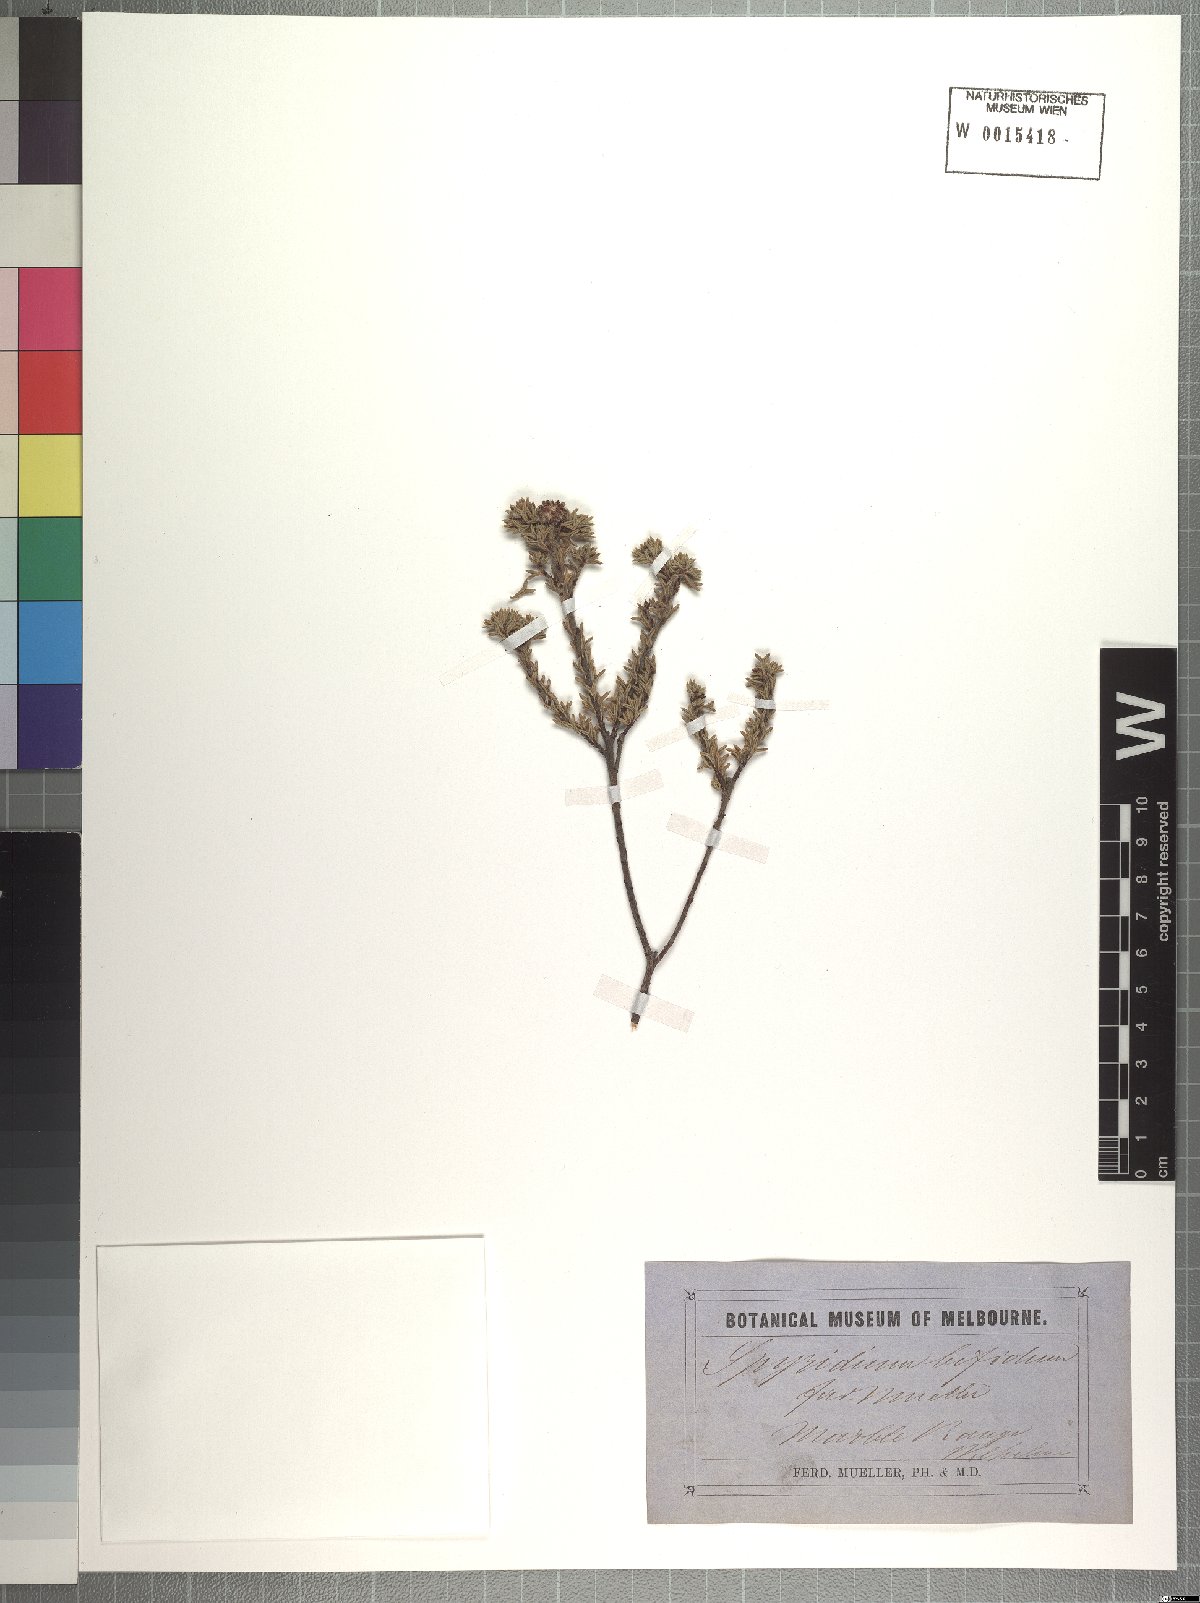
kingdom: Plantae
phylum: Tracheophyta
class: Magnoliopsida
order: Rosales
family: Rhamnaceae
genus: Spyridium
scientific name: Spyridium bifidum
